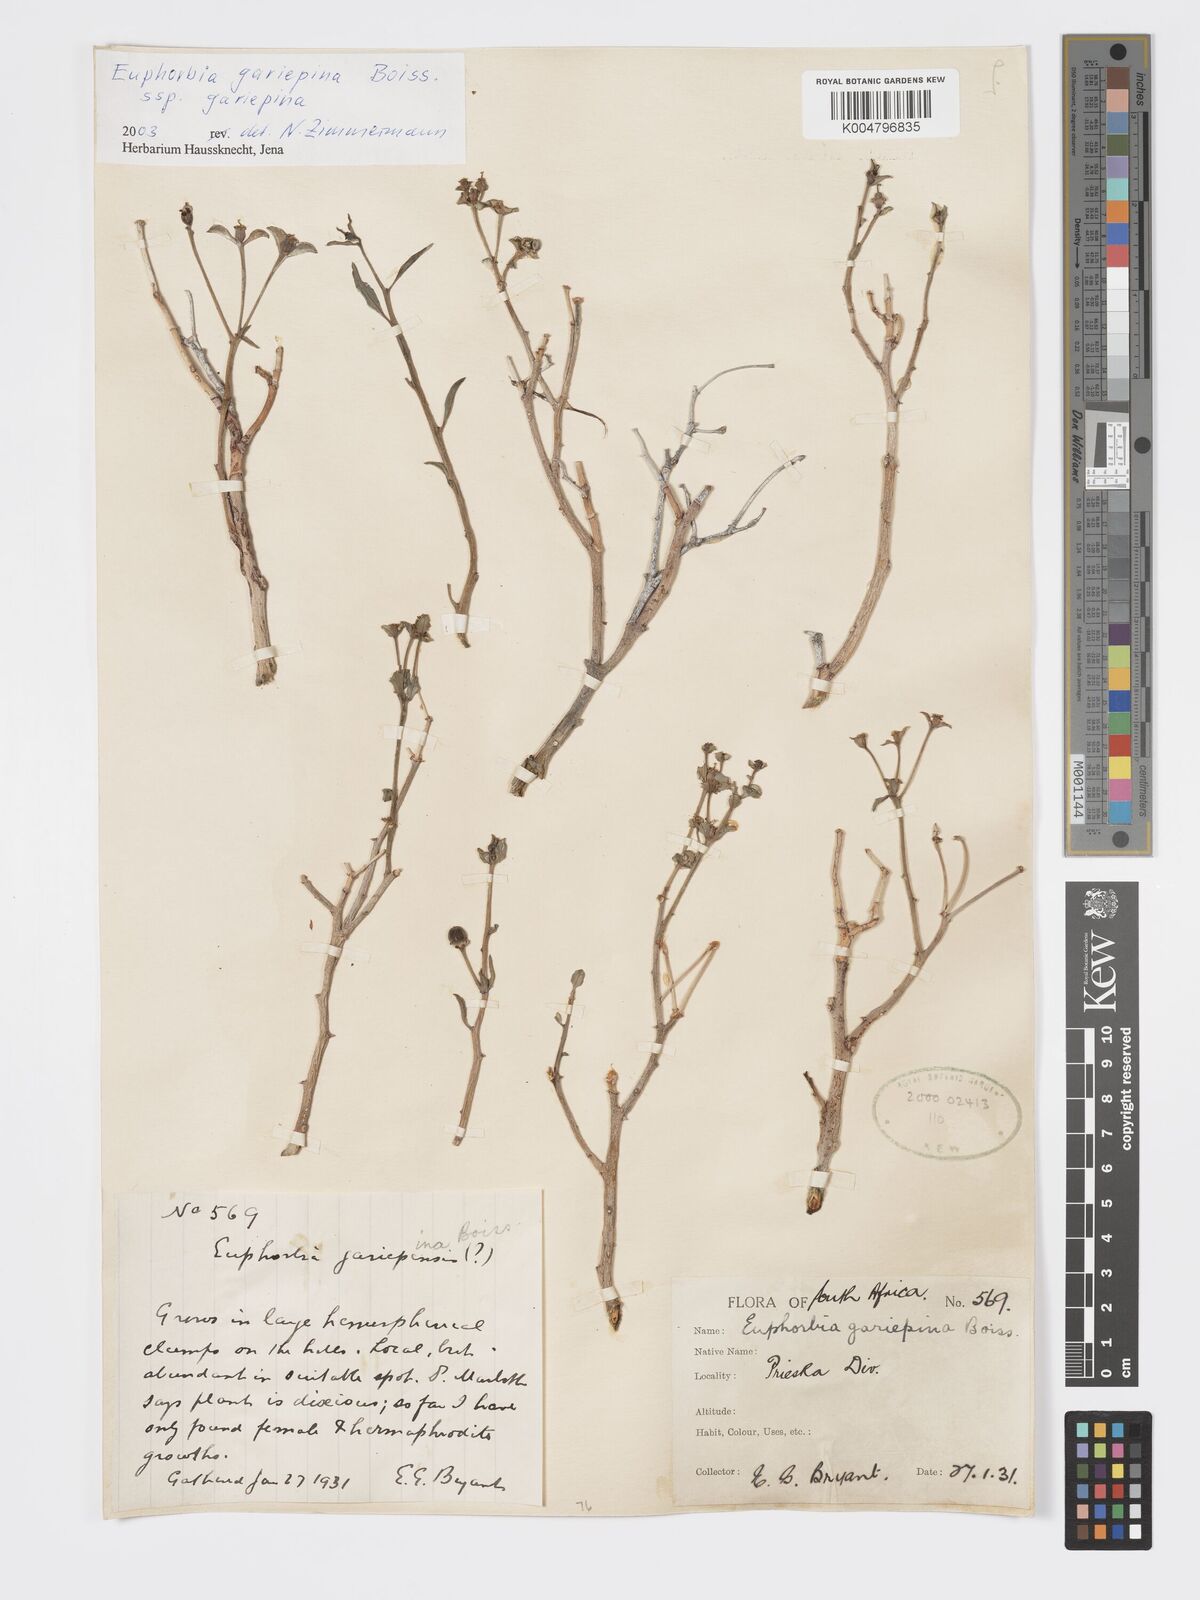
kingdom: Plantae
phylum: Tracheophyta
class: Magnoliopsida
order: Malpighiales
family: Euphorbiaceae
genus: Euphorbia
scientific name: Euphorbia gariepina
